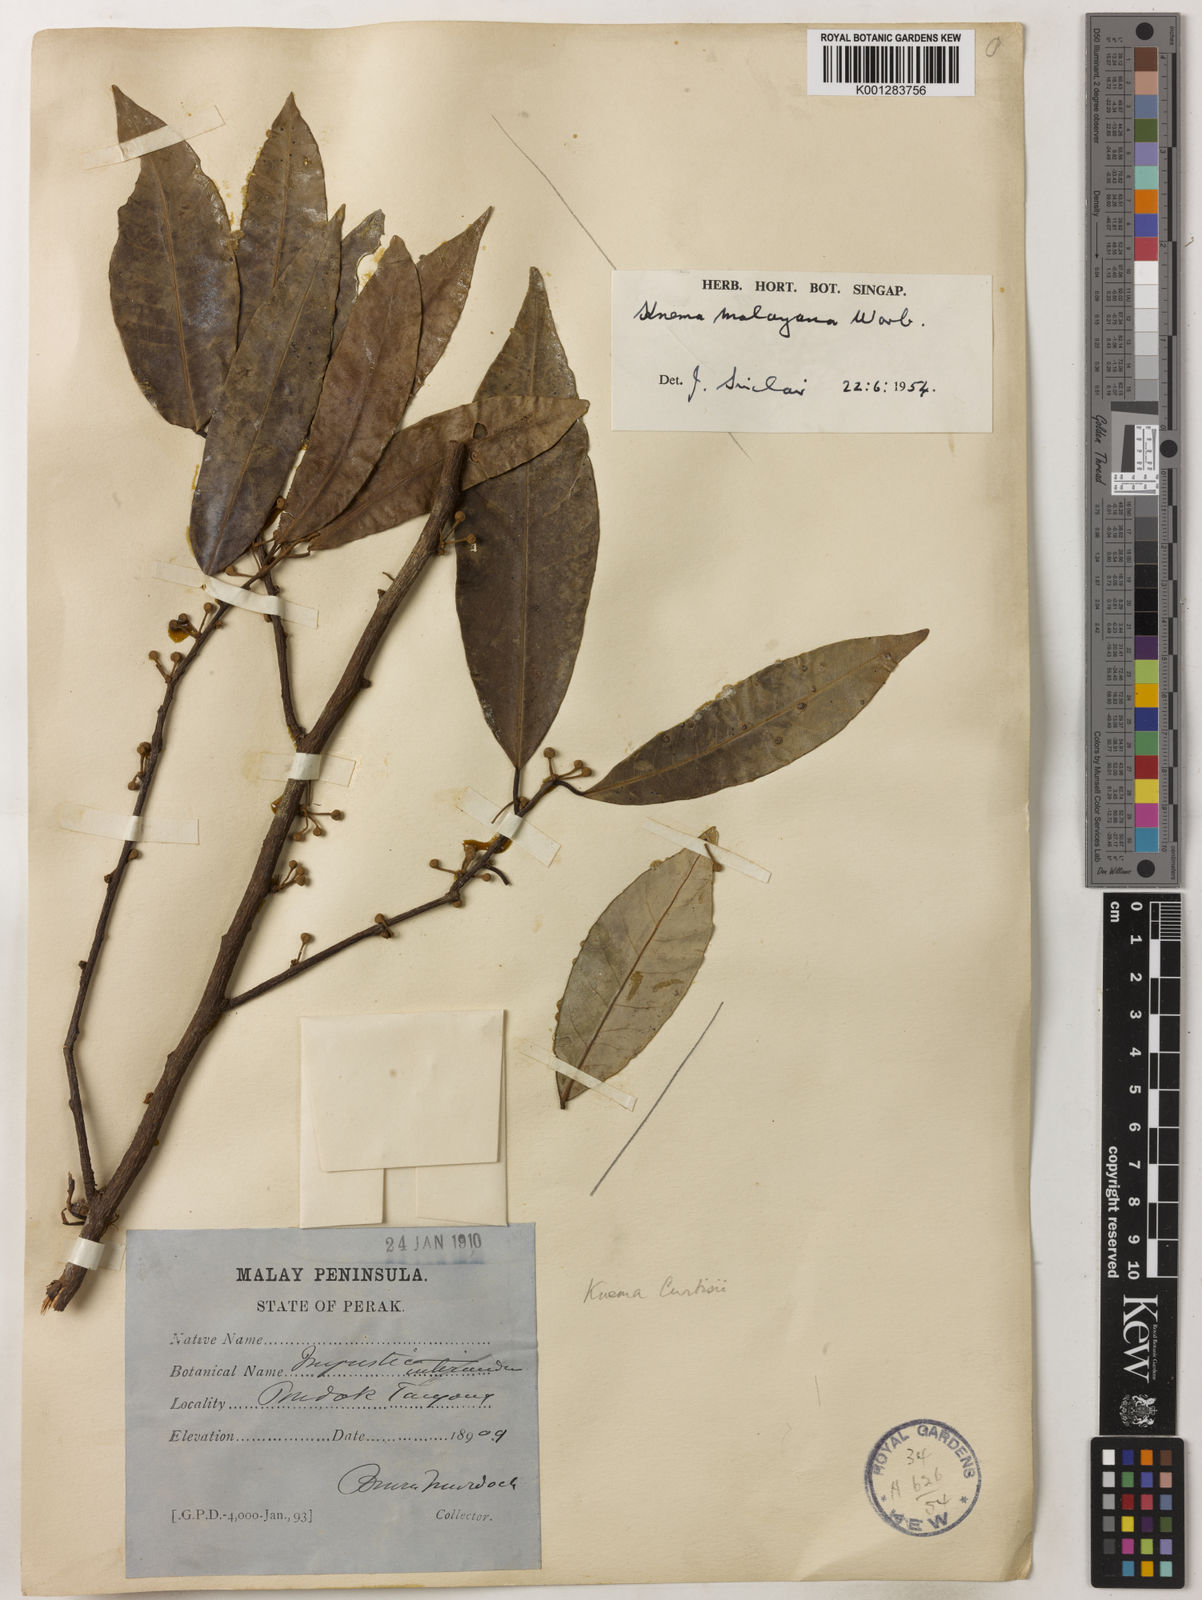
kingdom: Plantae
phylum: Tracheophyta
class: Magnoliopsida
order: Magnoliales
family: Myristicaceae
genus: Knema
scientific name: Knema malayana
